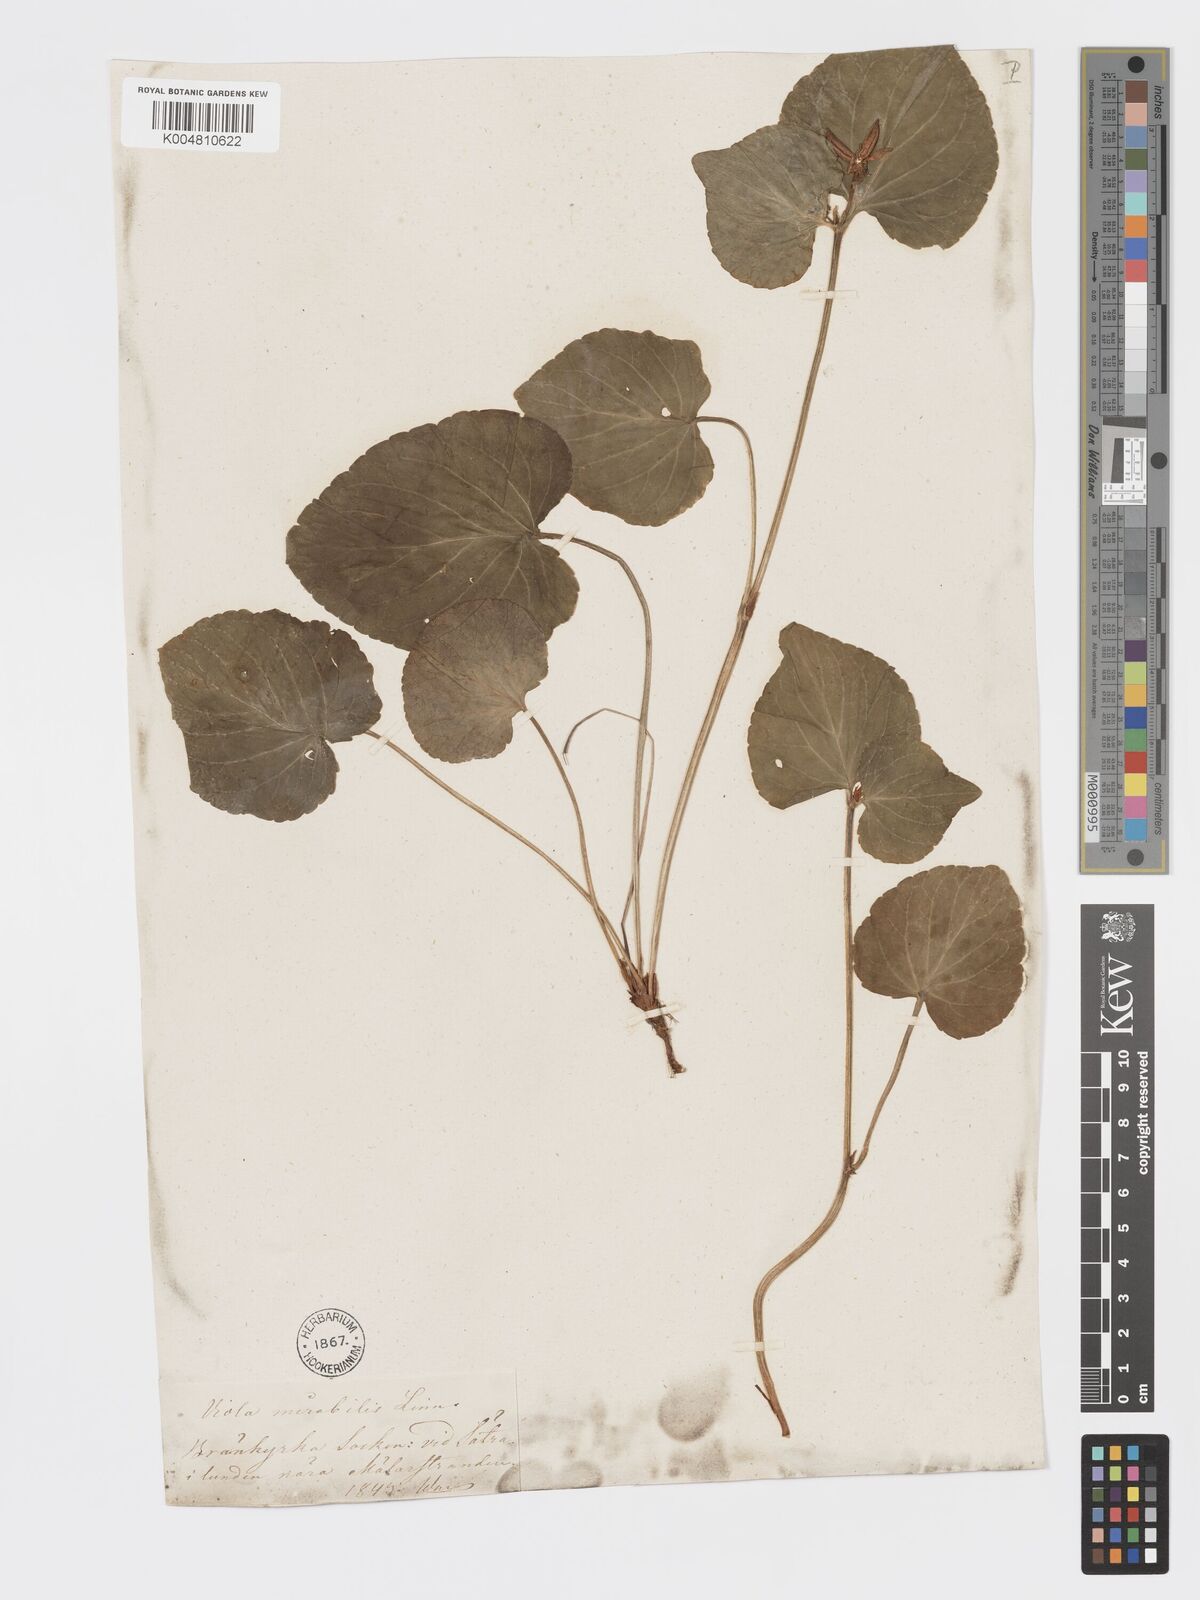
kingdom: Plantae
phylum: Tracheophyta
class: Magnoliopsida
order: Malpighiales
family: Violaceae
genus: Viola
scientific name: Viola mirabilis
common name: Wonder violet
